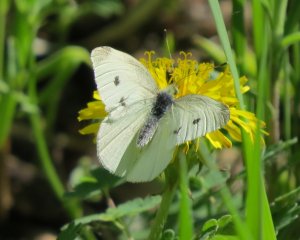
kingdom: Animalia
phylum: Arthropoda
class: Insecta
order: Lepidoptera
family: Pieridae
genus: Pieris
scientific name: Pieris rapae
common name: Cabbage White
